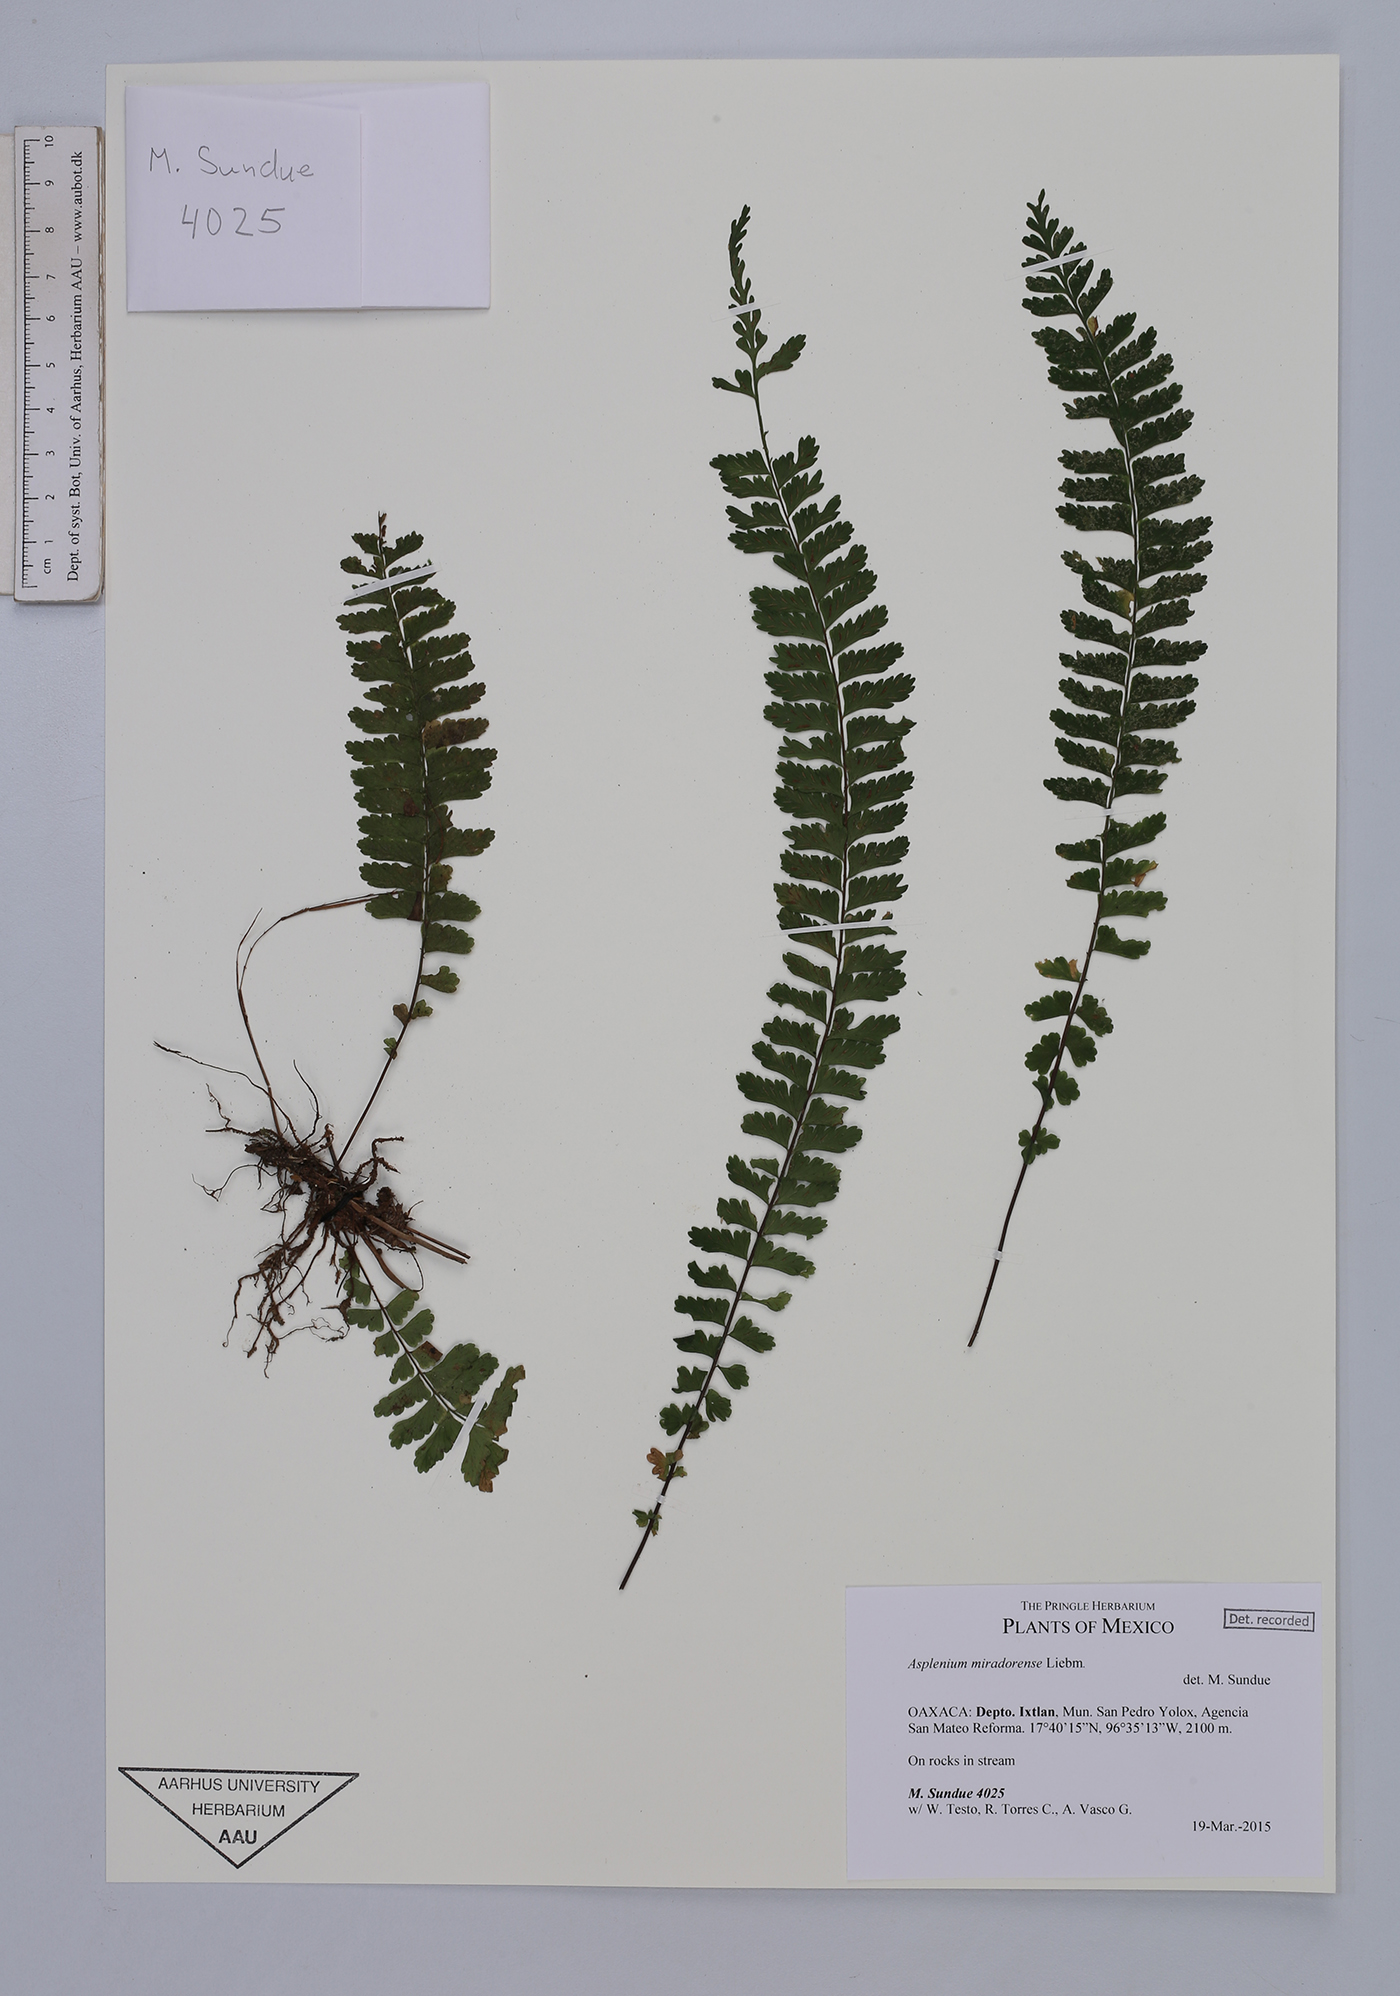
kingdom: Plantae
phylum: Tracheophyta
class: Polypodiopsida
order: Polypodiales
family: Aspleniaceae
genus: Asplenium
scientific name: Asplenium miradorense
